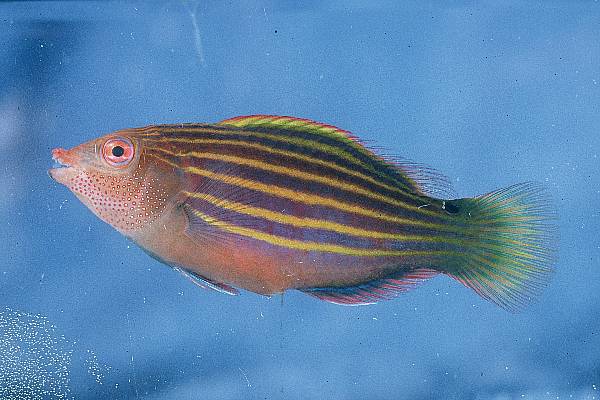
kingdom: Animalia
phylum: Chordata
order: Perciformes
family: Labridae
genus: Pseudocheilinus
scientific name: Pseudocheilinus hexataenia
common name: Sixline wrasse
